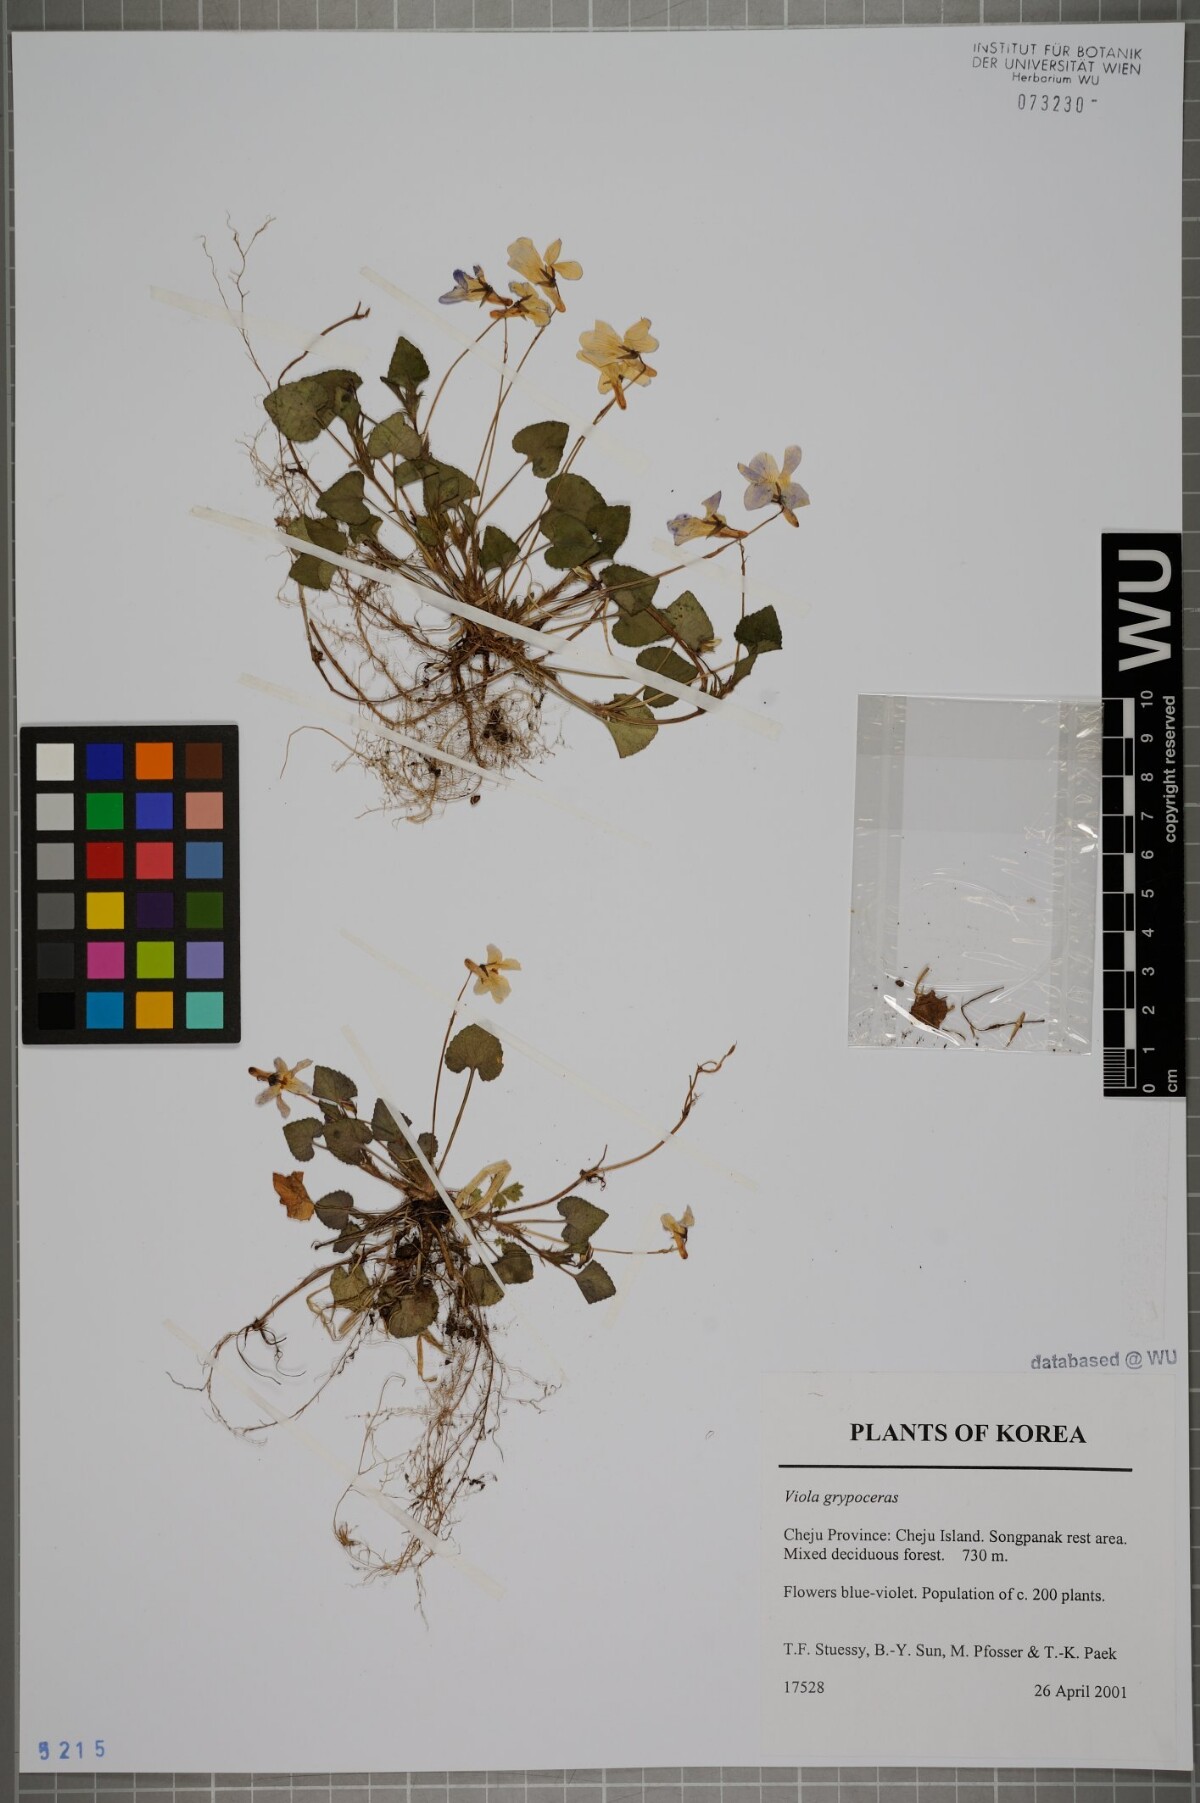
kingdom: Plantae
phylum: Tracheophyta
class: Magnoliopsida
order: Malpighiales
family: Violaceae
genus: Viola
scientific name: Viola grypoceras
